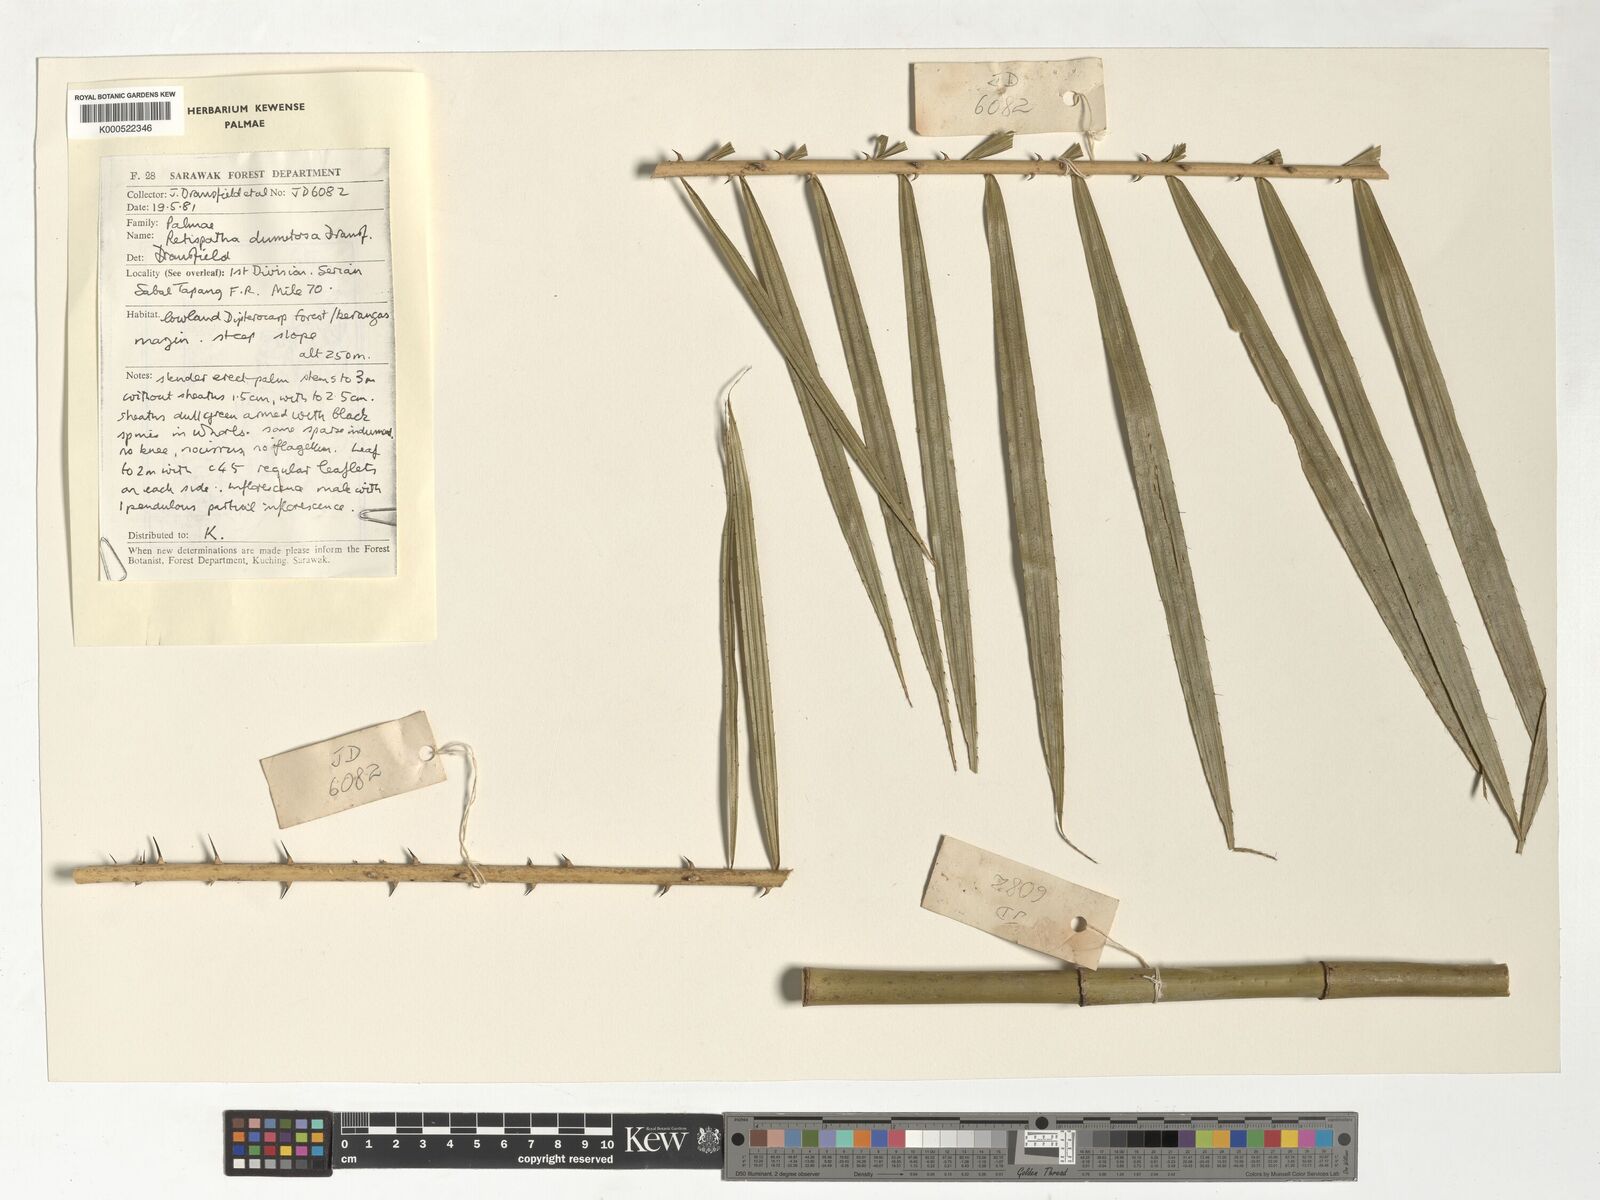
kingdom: Plantae
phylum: Tracheophyta
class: Liliopsida
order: Arecales
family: Arecaceae
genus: Calamus
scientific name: Calamus dumetosus
